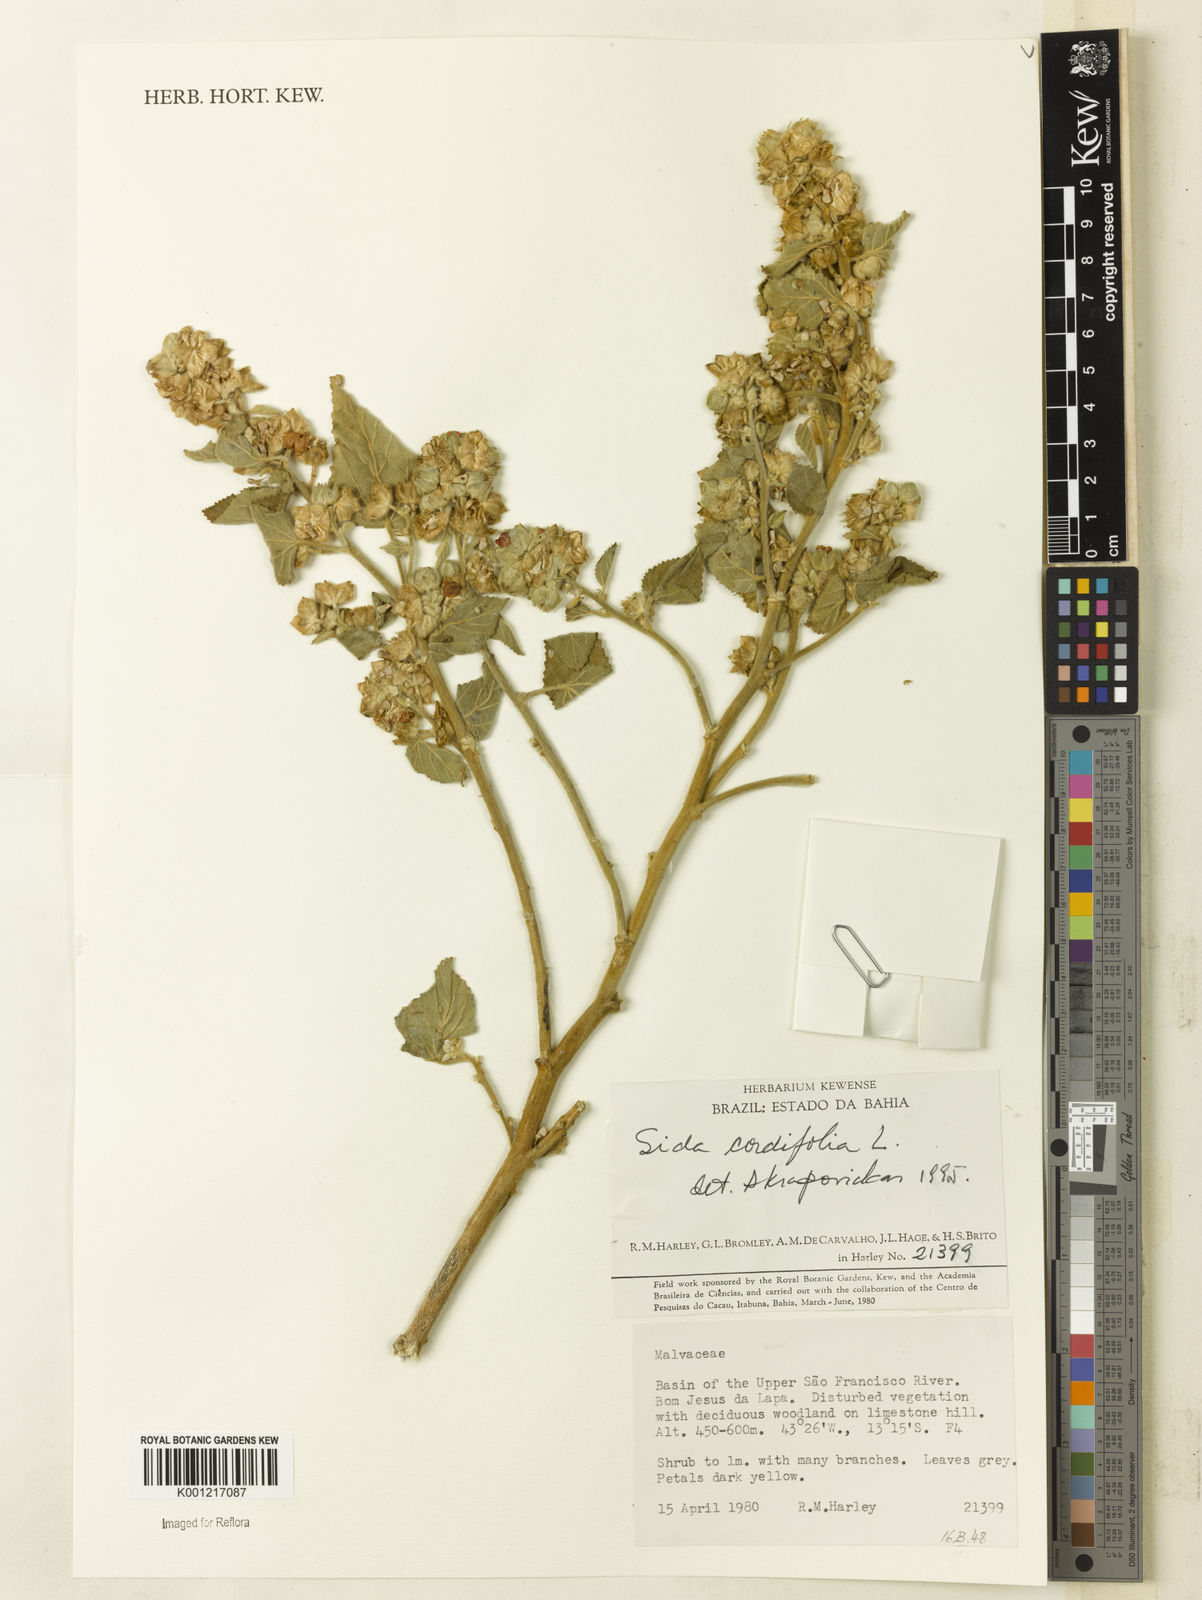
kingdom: Plantae
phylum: Tracheophyta
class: Magnoliopsida
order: Malvales
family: Malvaceae
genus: Sida
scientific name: Sida cordifolia
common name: Ilima
